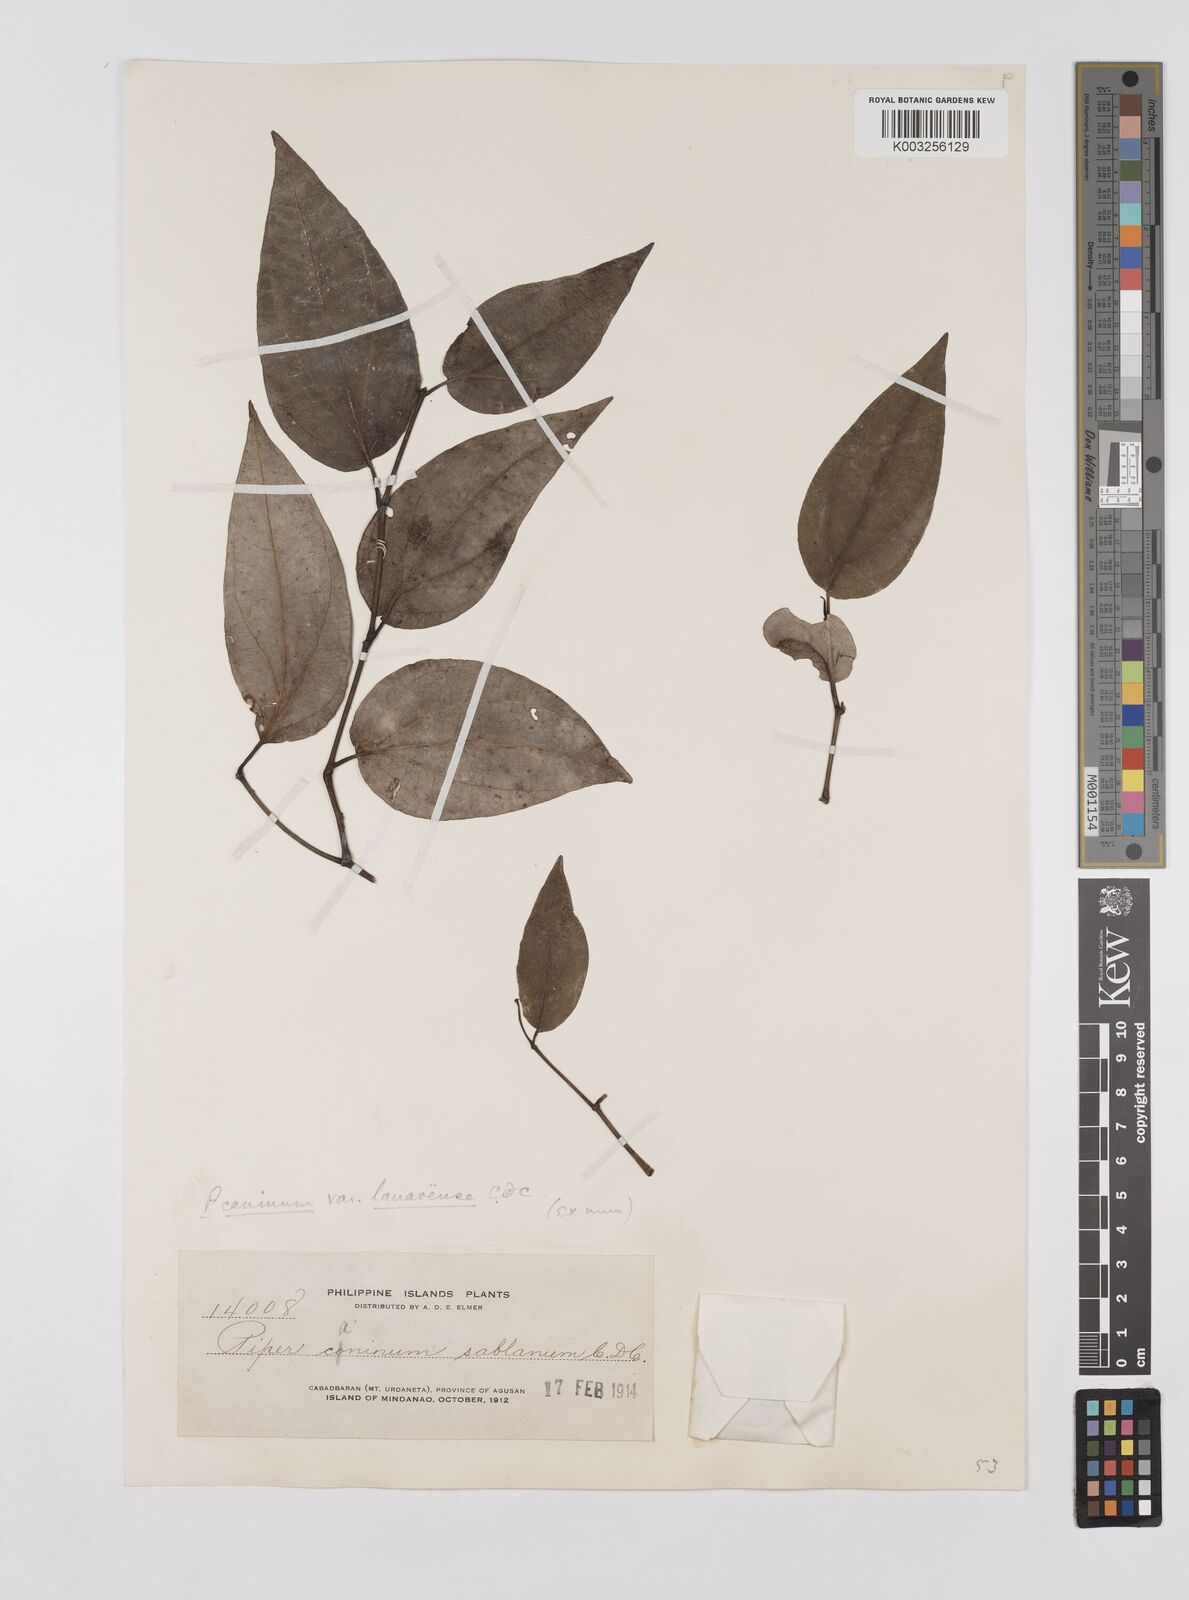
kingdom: Plantae
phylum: Tracheophyta
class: Magnoliopsida
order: Piperales
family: Piperaceae
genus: Piper
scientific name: Piper lanatum
